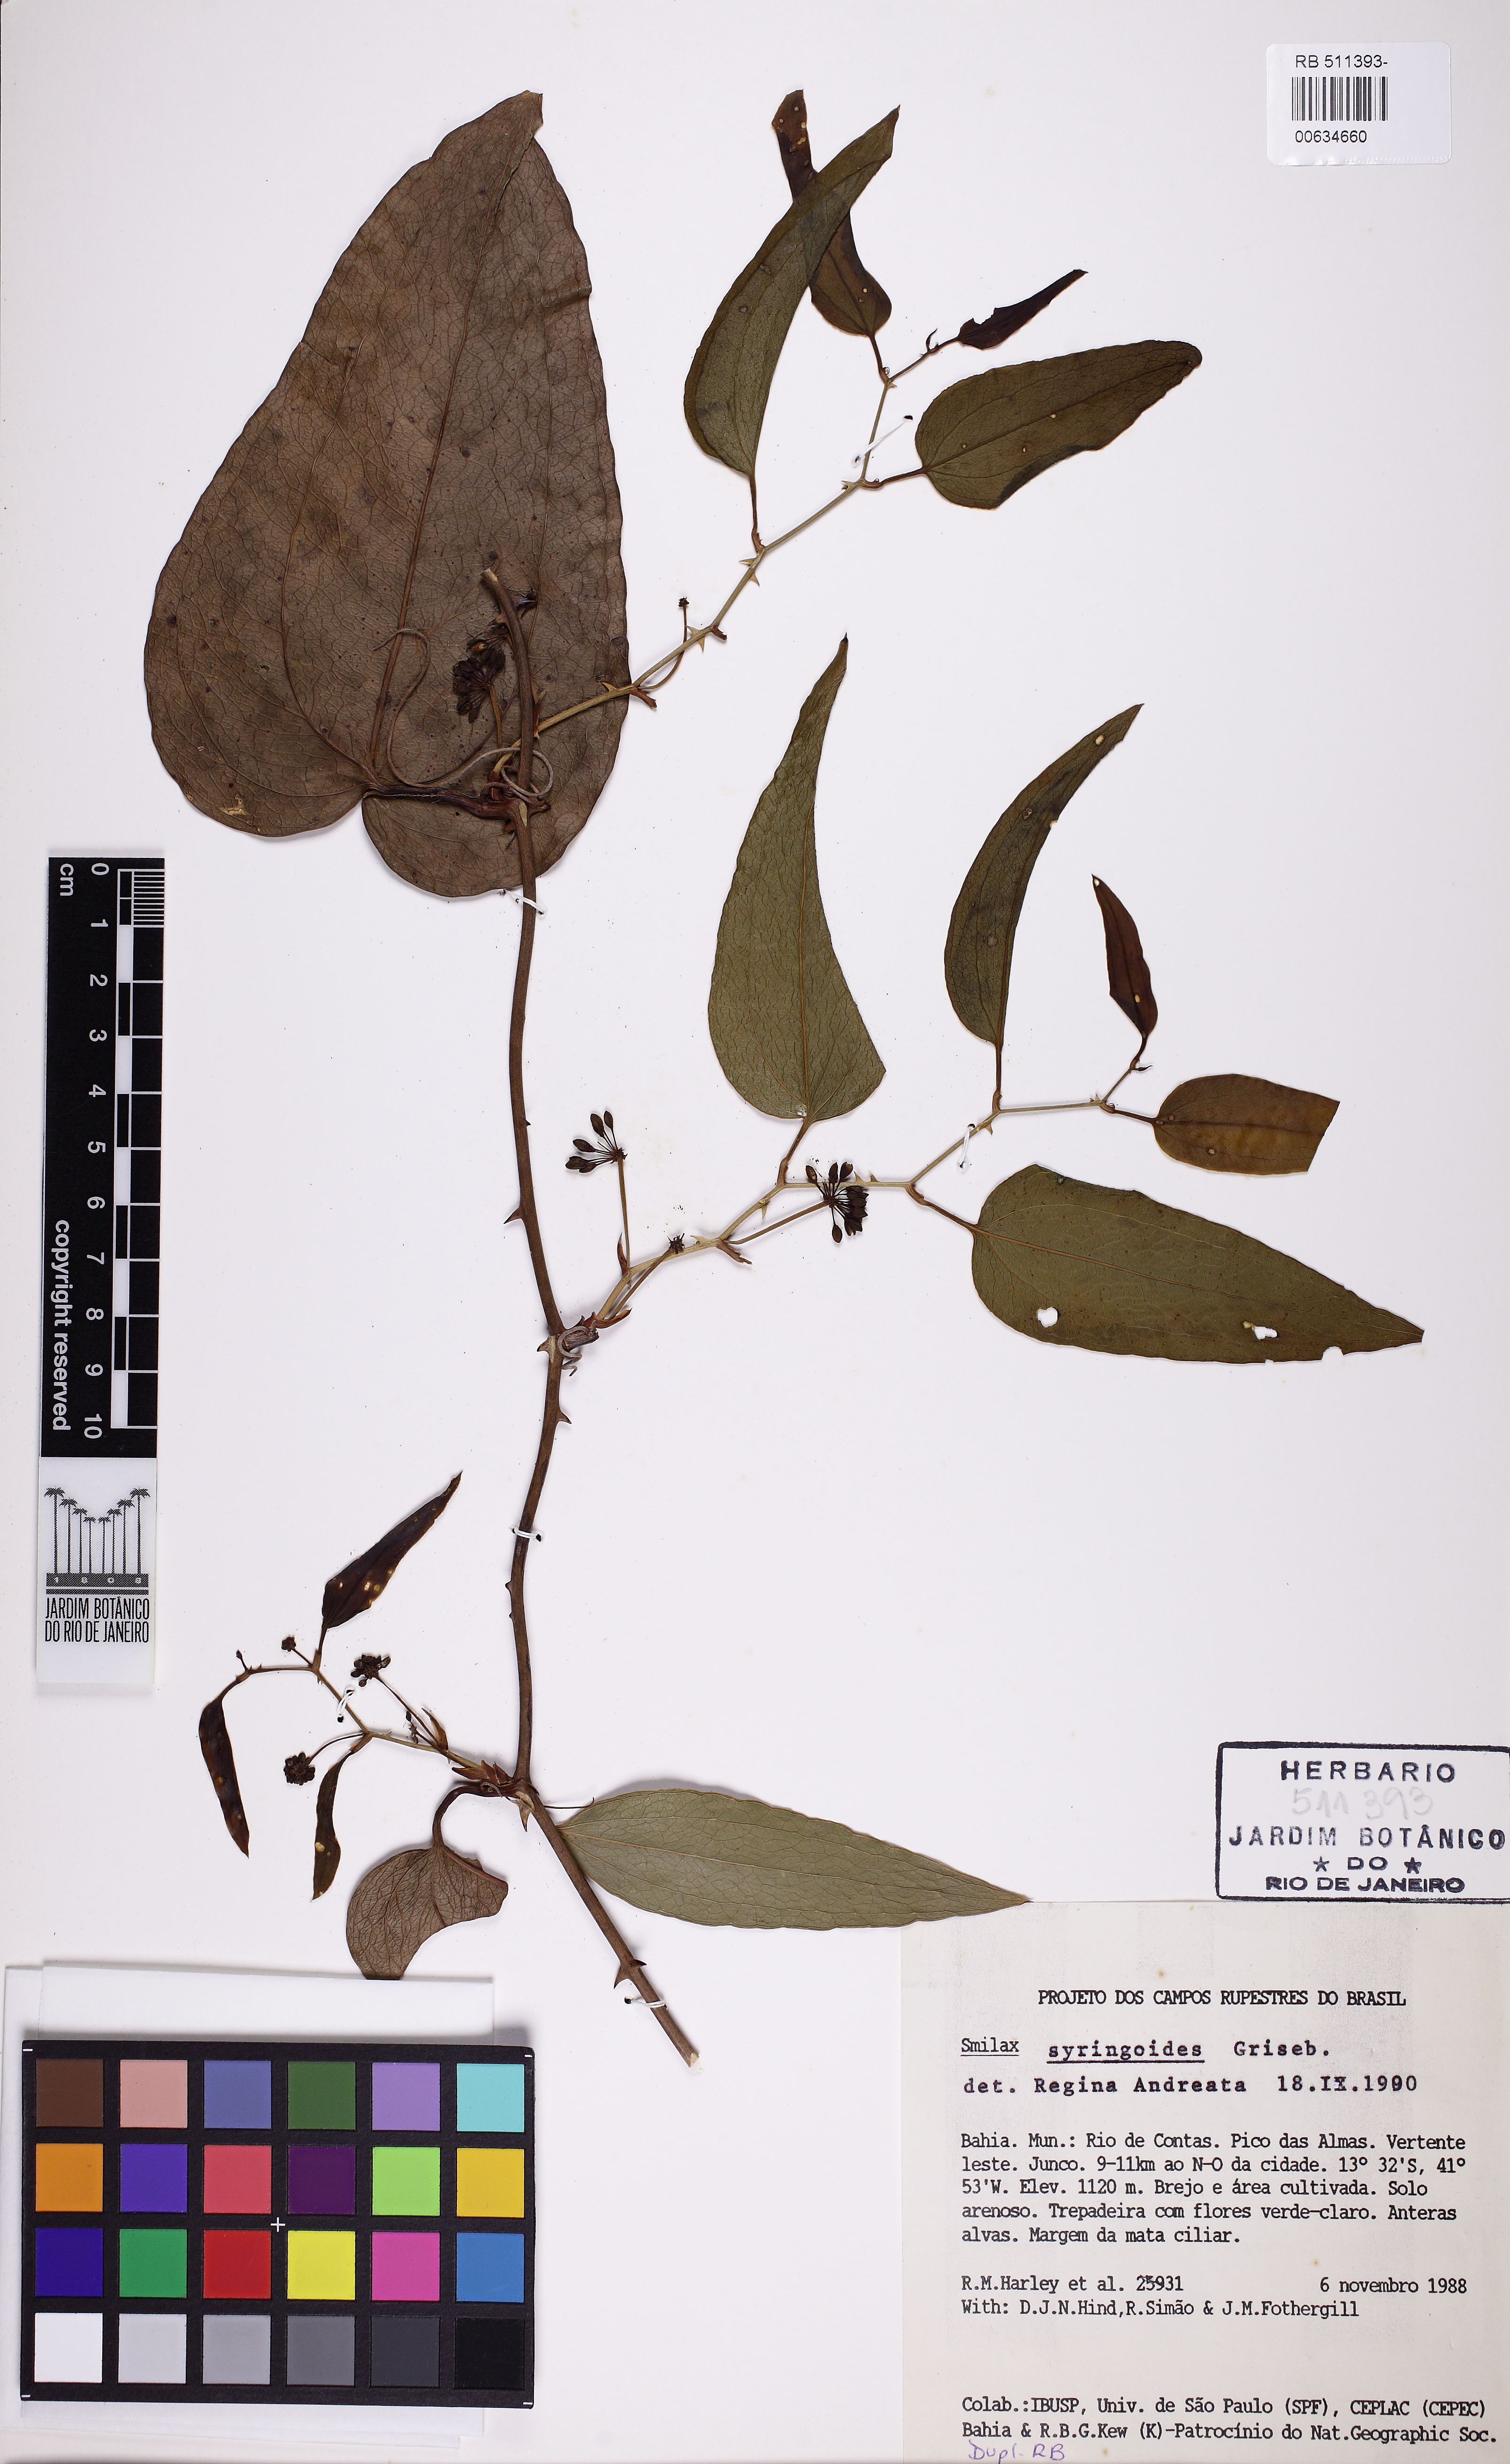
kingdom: Plantae
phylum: Tracheophyta
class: Liliopsida
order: Liliales
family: Smilacaceae
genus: Smilax
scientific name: Smilax fluminensis
